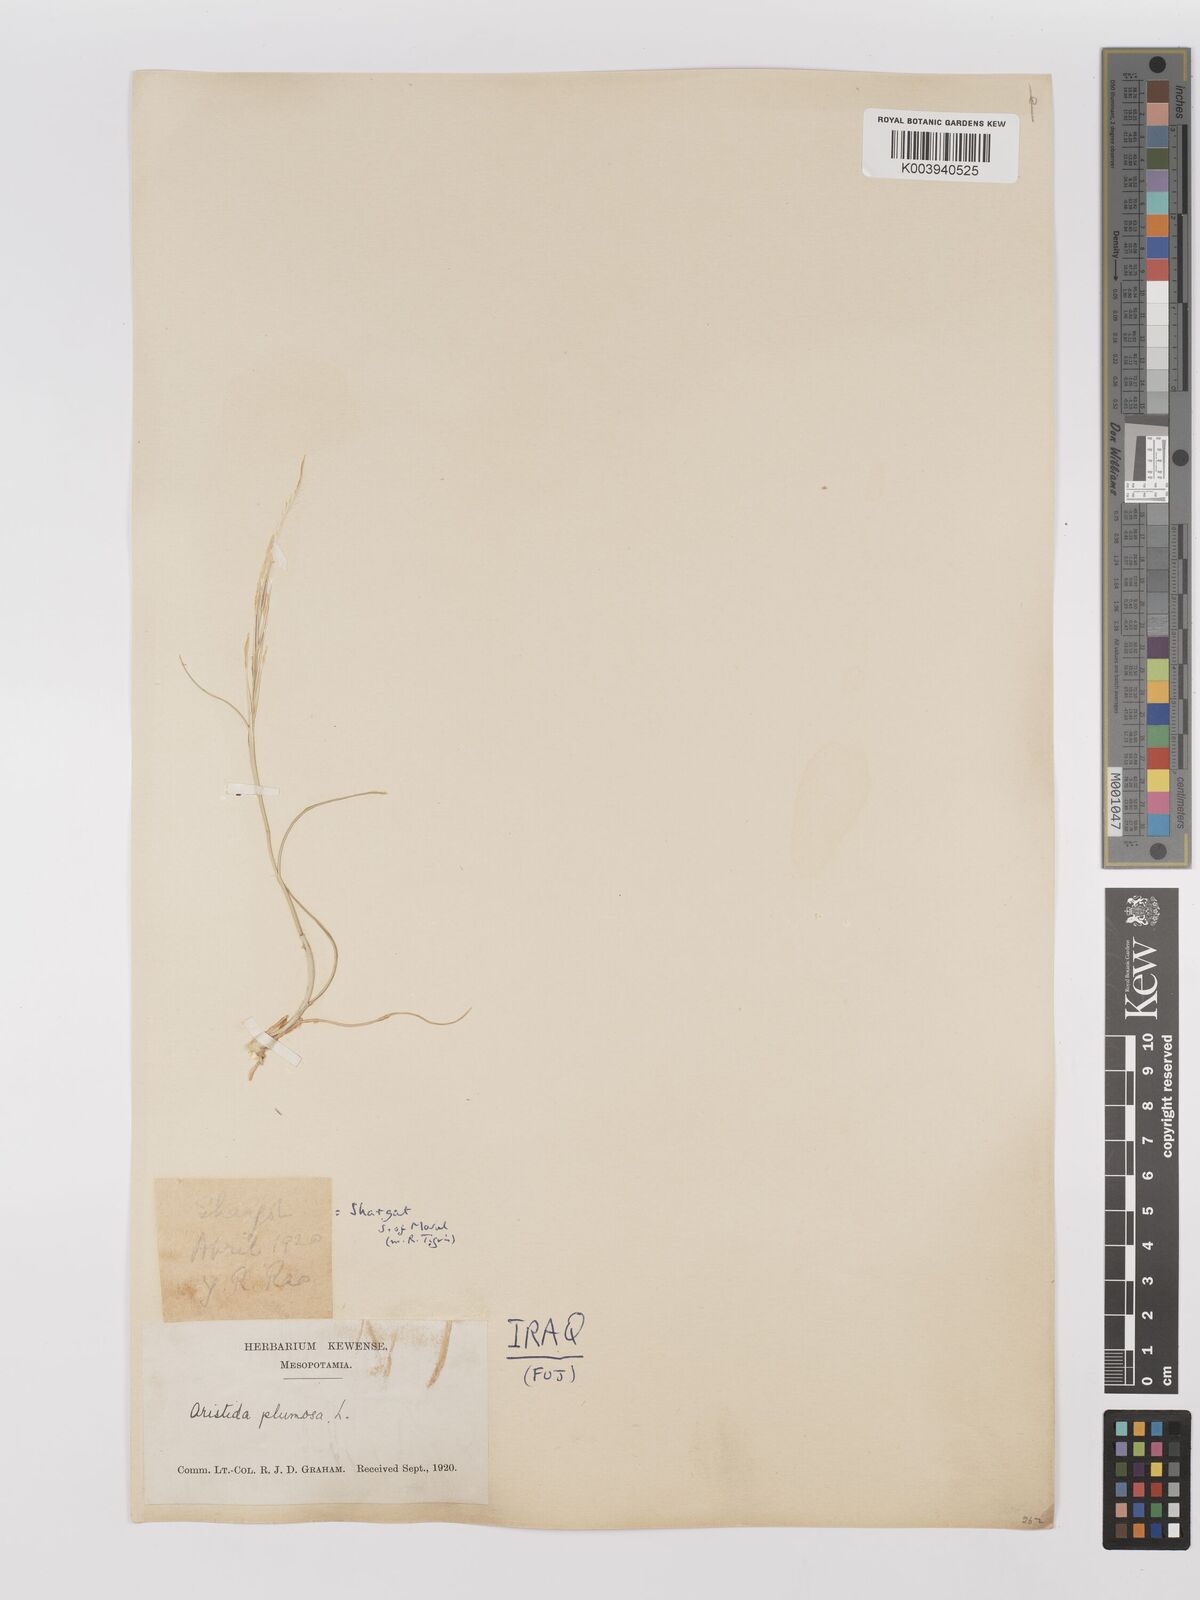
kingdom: Plantae
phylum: Tracheophyta
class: Liliopsida
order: Poales
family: Poaceae
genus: Stipagrostis
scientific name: Stipagrostis plumosa
